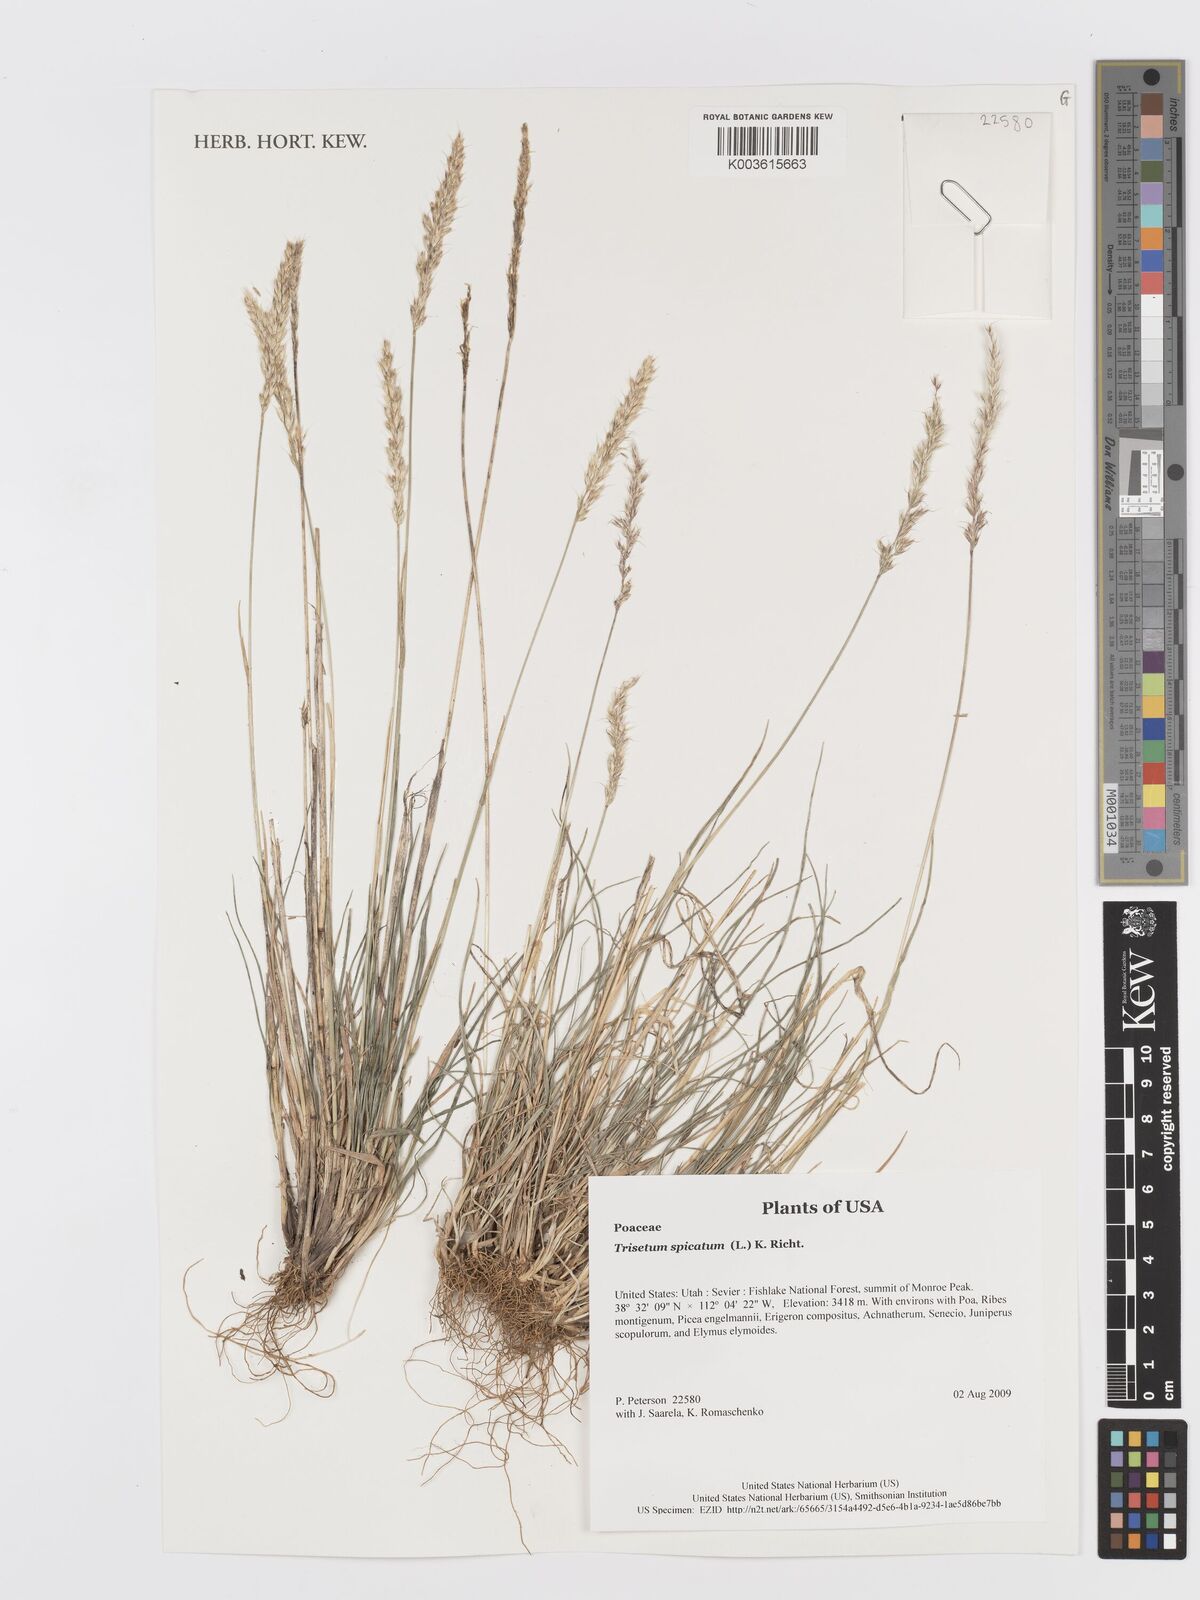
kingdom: Plantae
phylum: Tracheophyta
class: Liliopsida
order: Poales
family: Poaceae
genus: Koeleria
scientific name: Koeleria spicata
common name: Mountain trisetum
